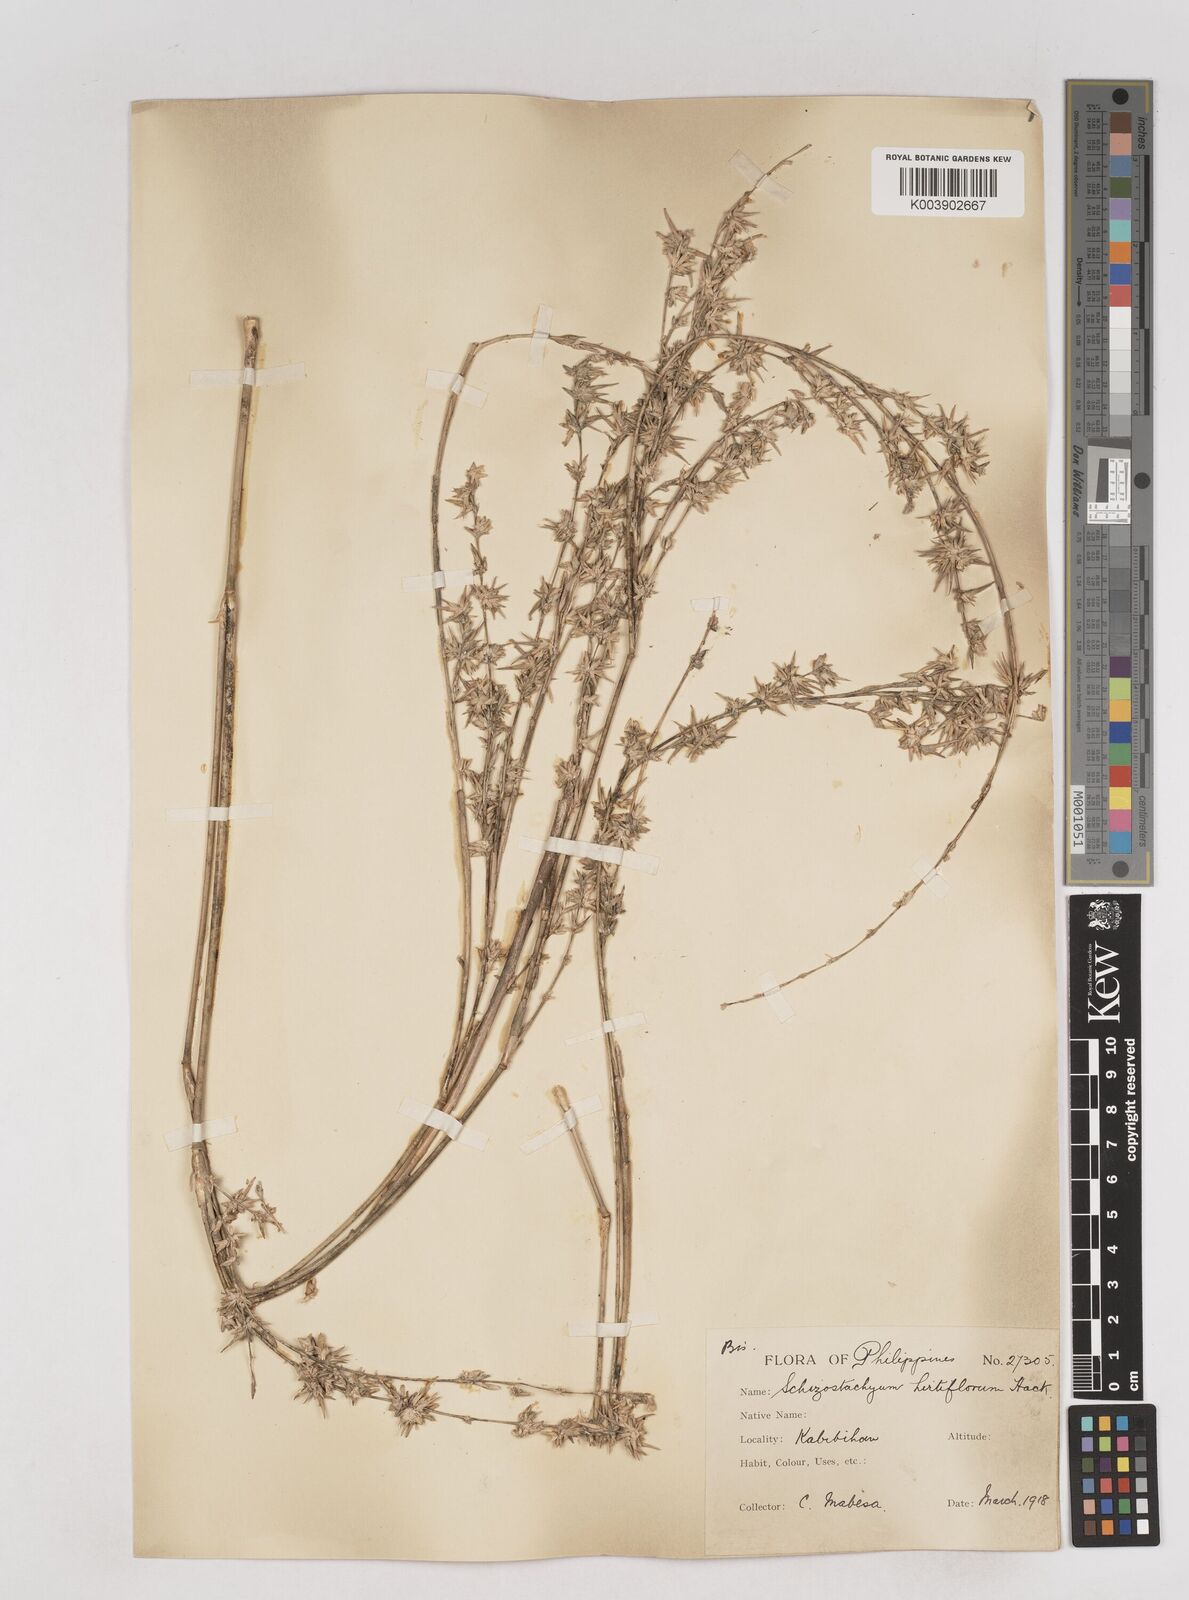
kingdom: Plantae
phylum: Tracheophyta
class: Liliopsida
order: Poales
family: Poaceae
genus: Schizostachyum
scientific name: Schizostachyum lumampao
